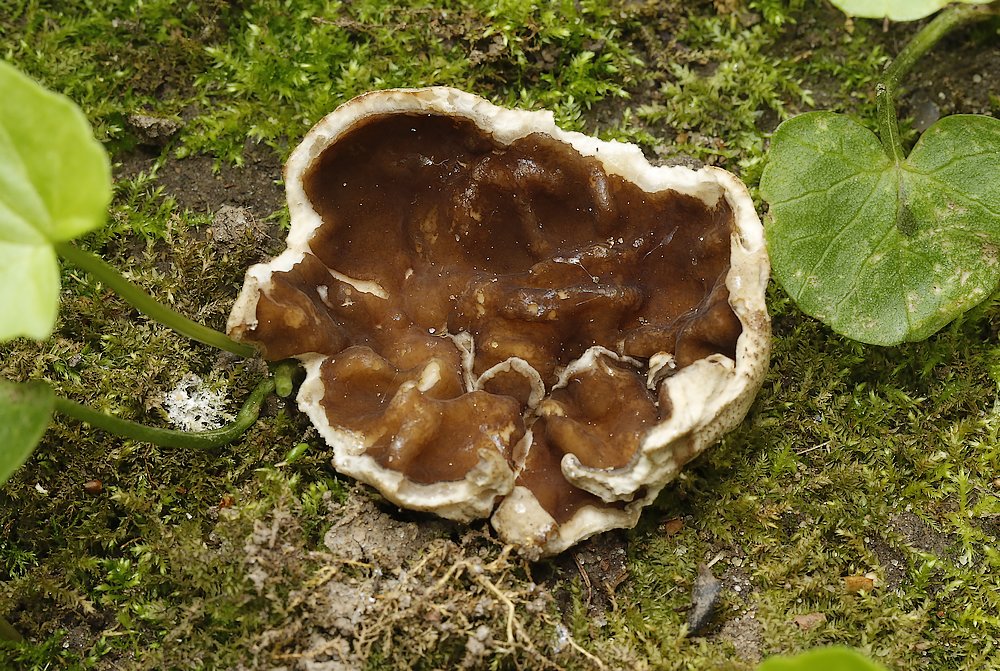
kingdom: Fungi
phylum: Ascomycota
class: Pezizomycetes
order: Pezizales
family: Morchellaceae
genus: Disciotis
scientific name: Disciotis venosa
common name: klor-bægermorkel
